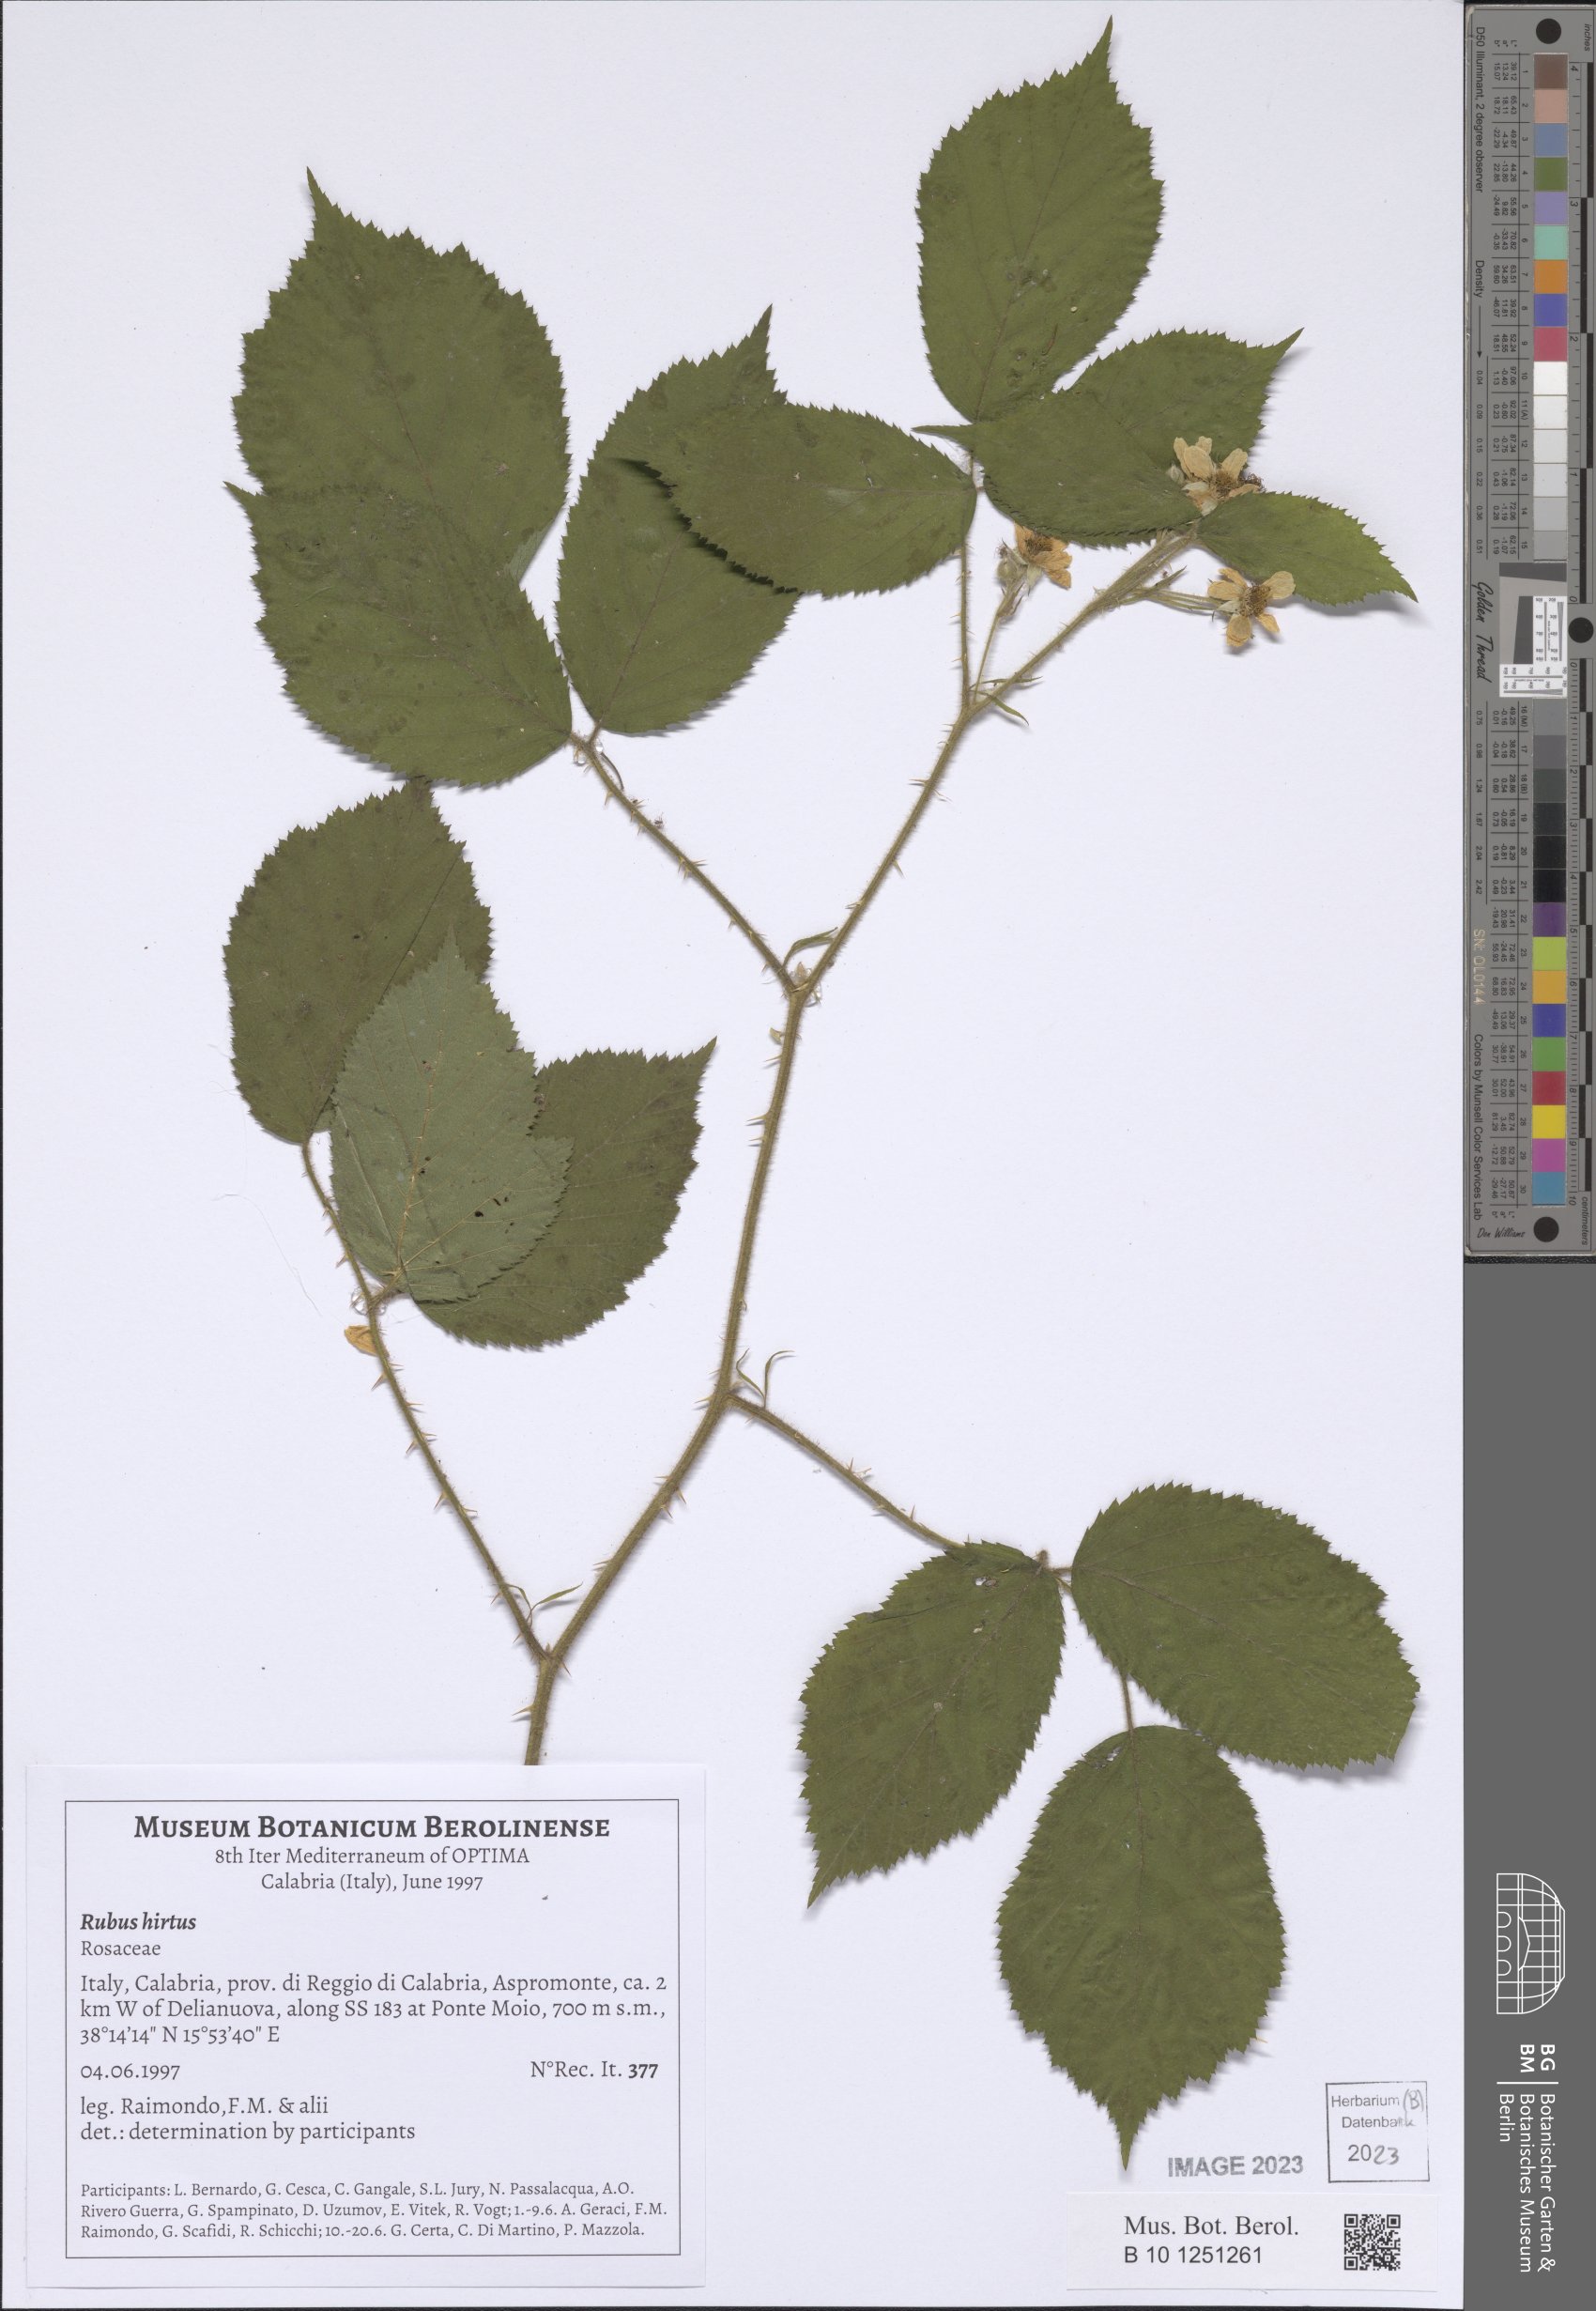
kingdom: Plantae
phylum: Tracheophyta
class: Magnoliopsida
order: Rosales
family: Rosaceae
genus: Rubus
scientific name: Rubus hirtus
